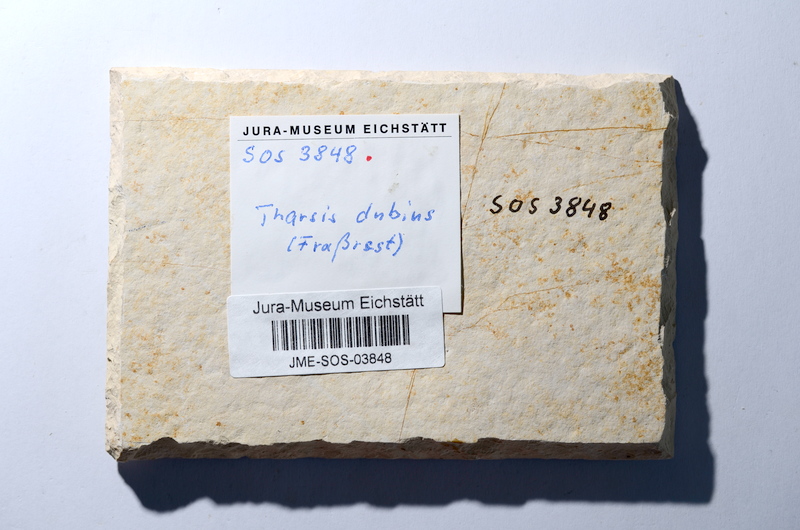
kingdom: Animalia
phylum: Chordata
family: Ascalaboidae
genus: Tharsis
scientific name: Tharsis dubius
